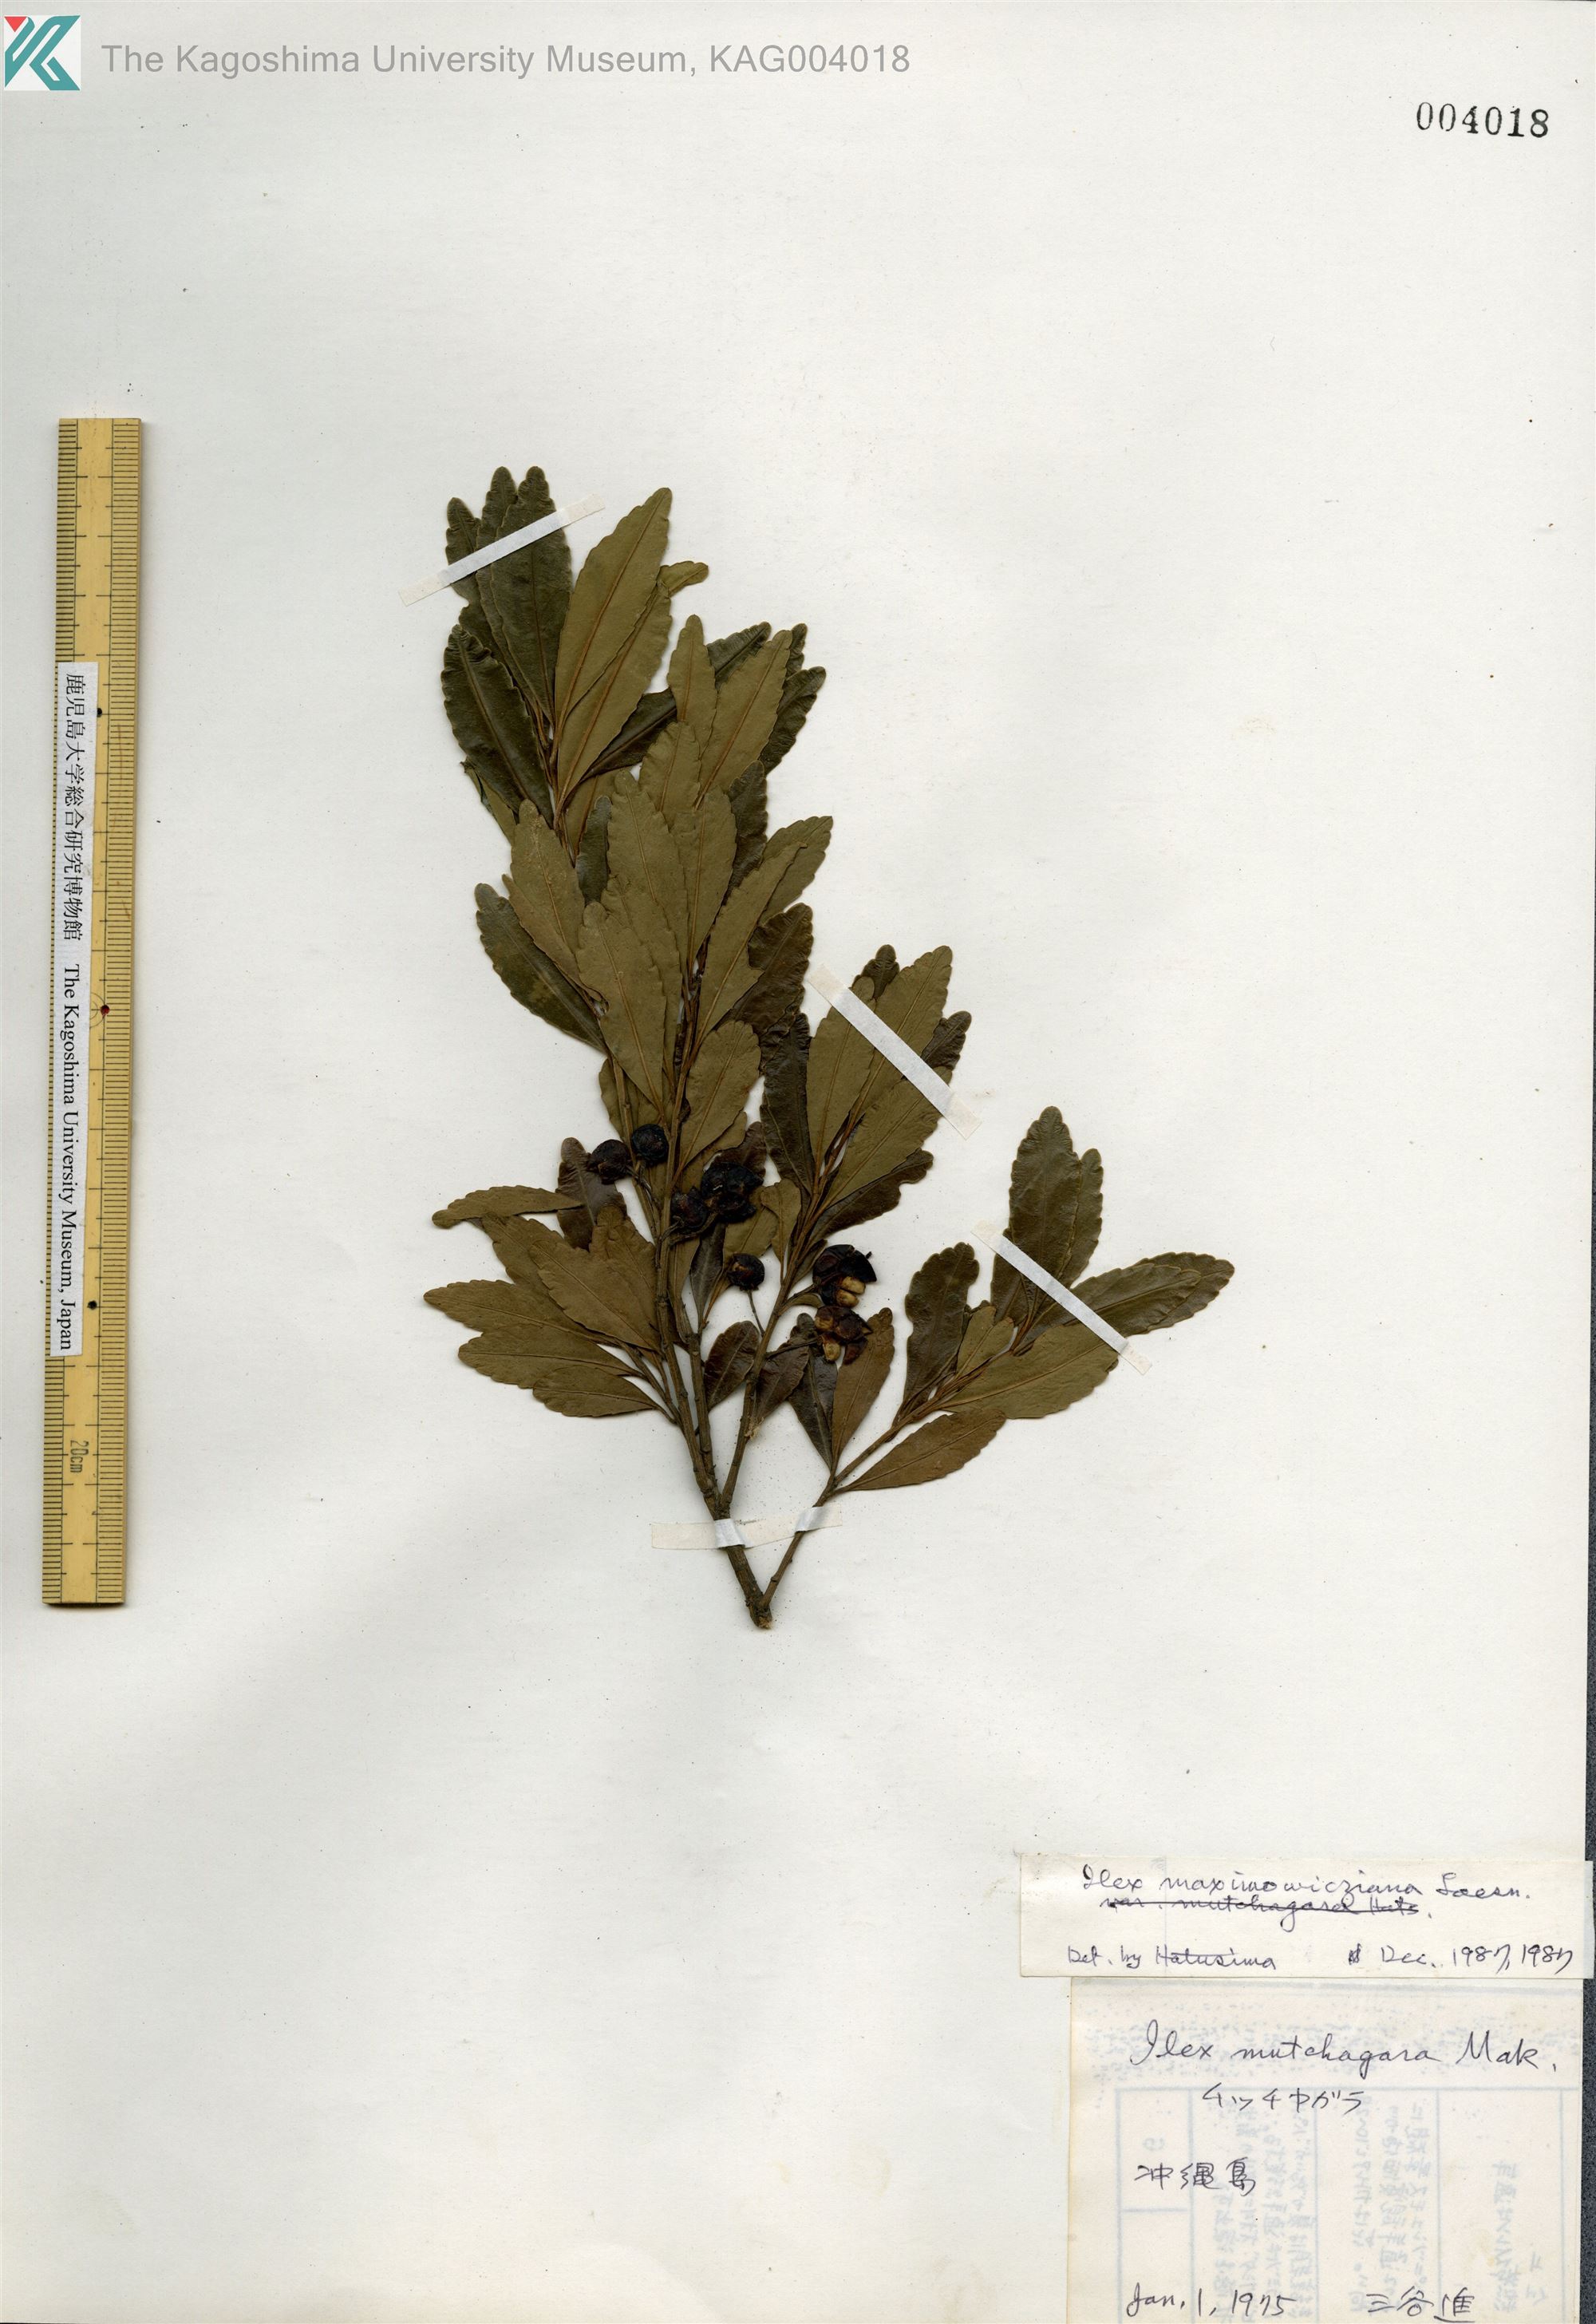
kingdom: Plantae
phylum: Tracheophyta
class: Magnoliopsida
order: Aquifoliales
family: Aquifoliaceae
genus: Ilex
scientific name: Ilex maximowicziana
